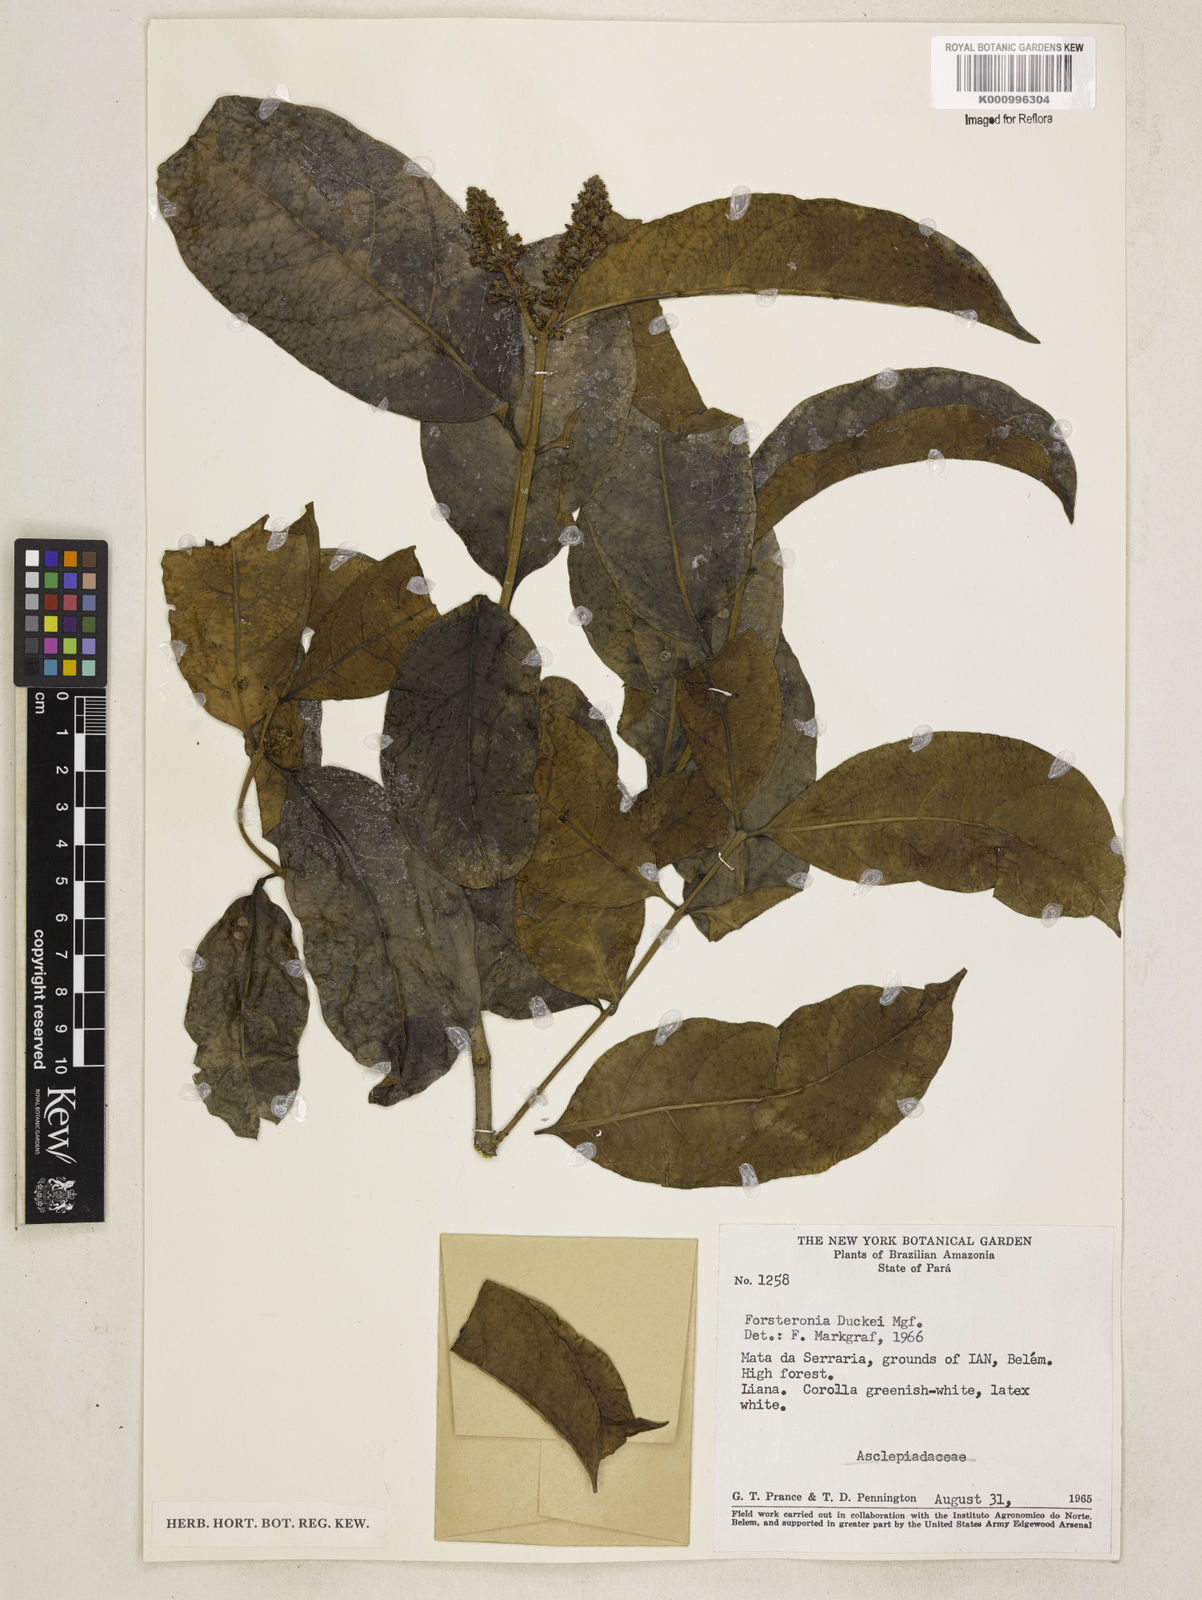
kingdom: Plantae
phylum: Tracheophyta
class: Magnoliopsida
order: Gentianales
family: Apocynaceae
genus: Forsteronia
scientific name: Forsteronia duckei
